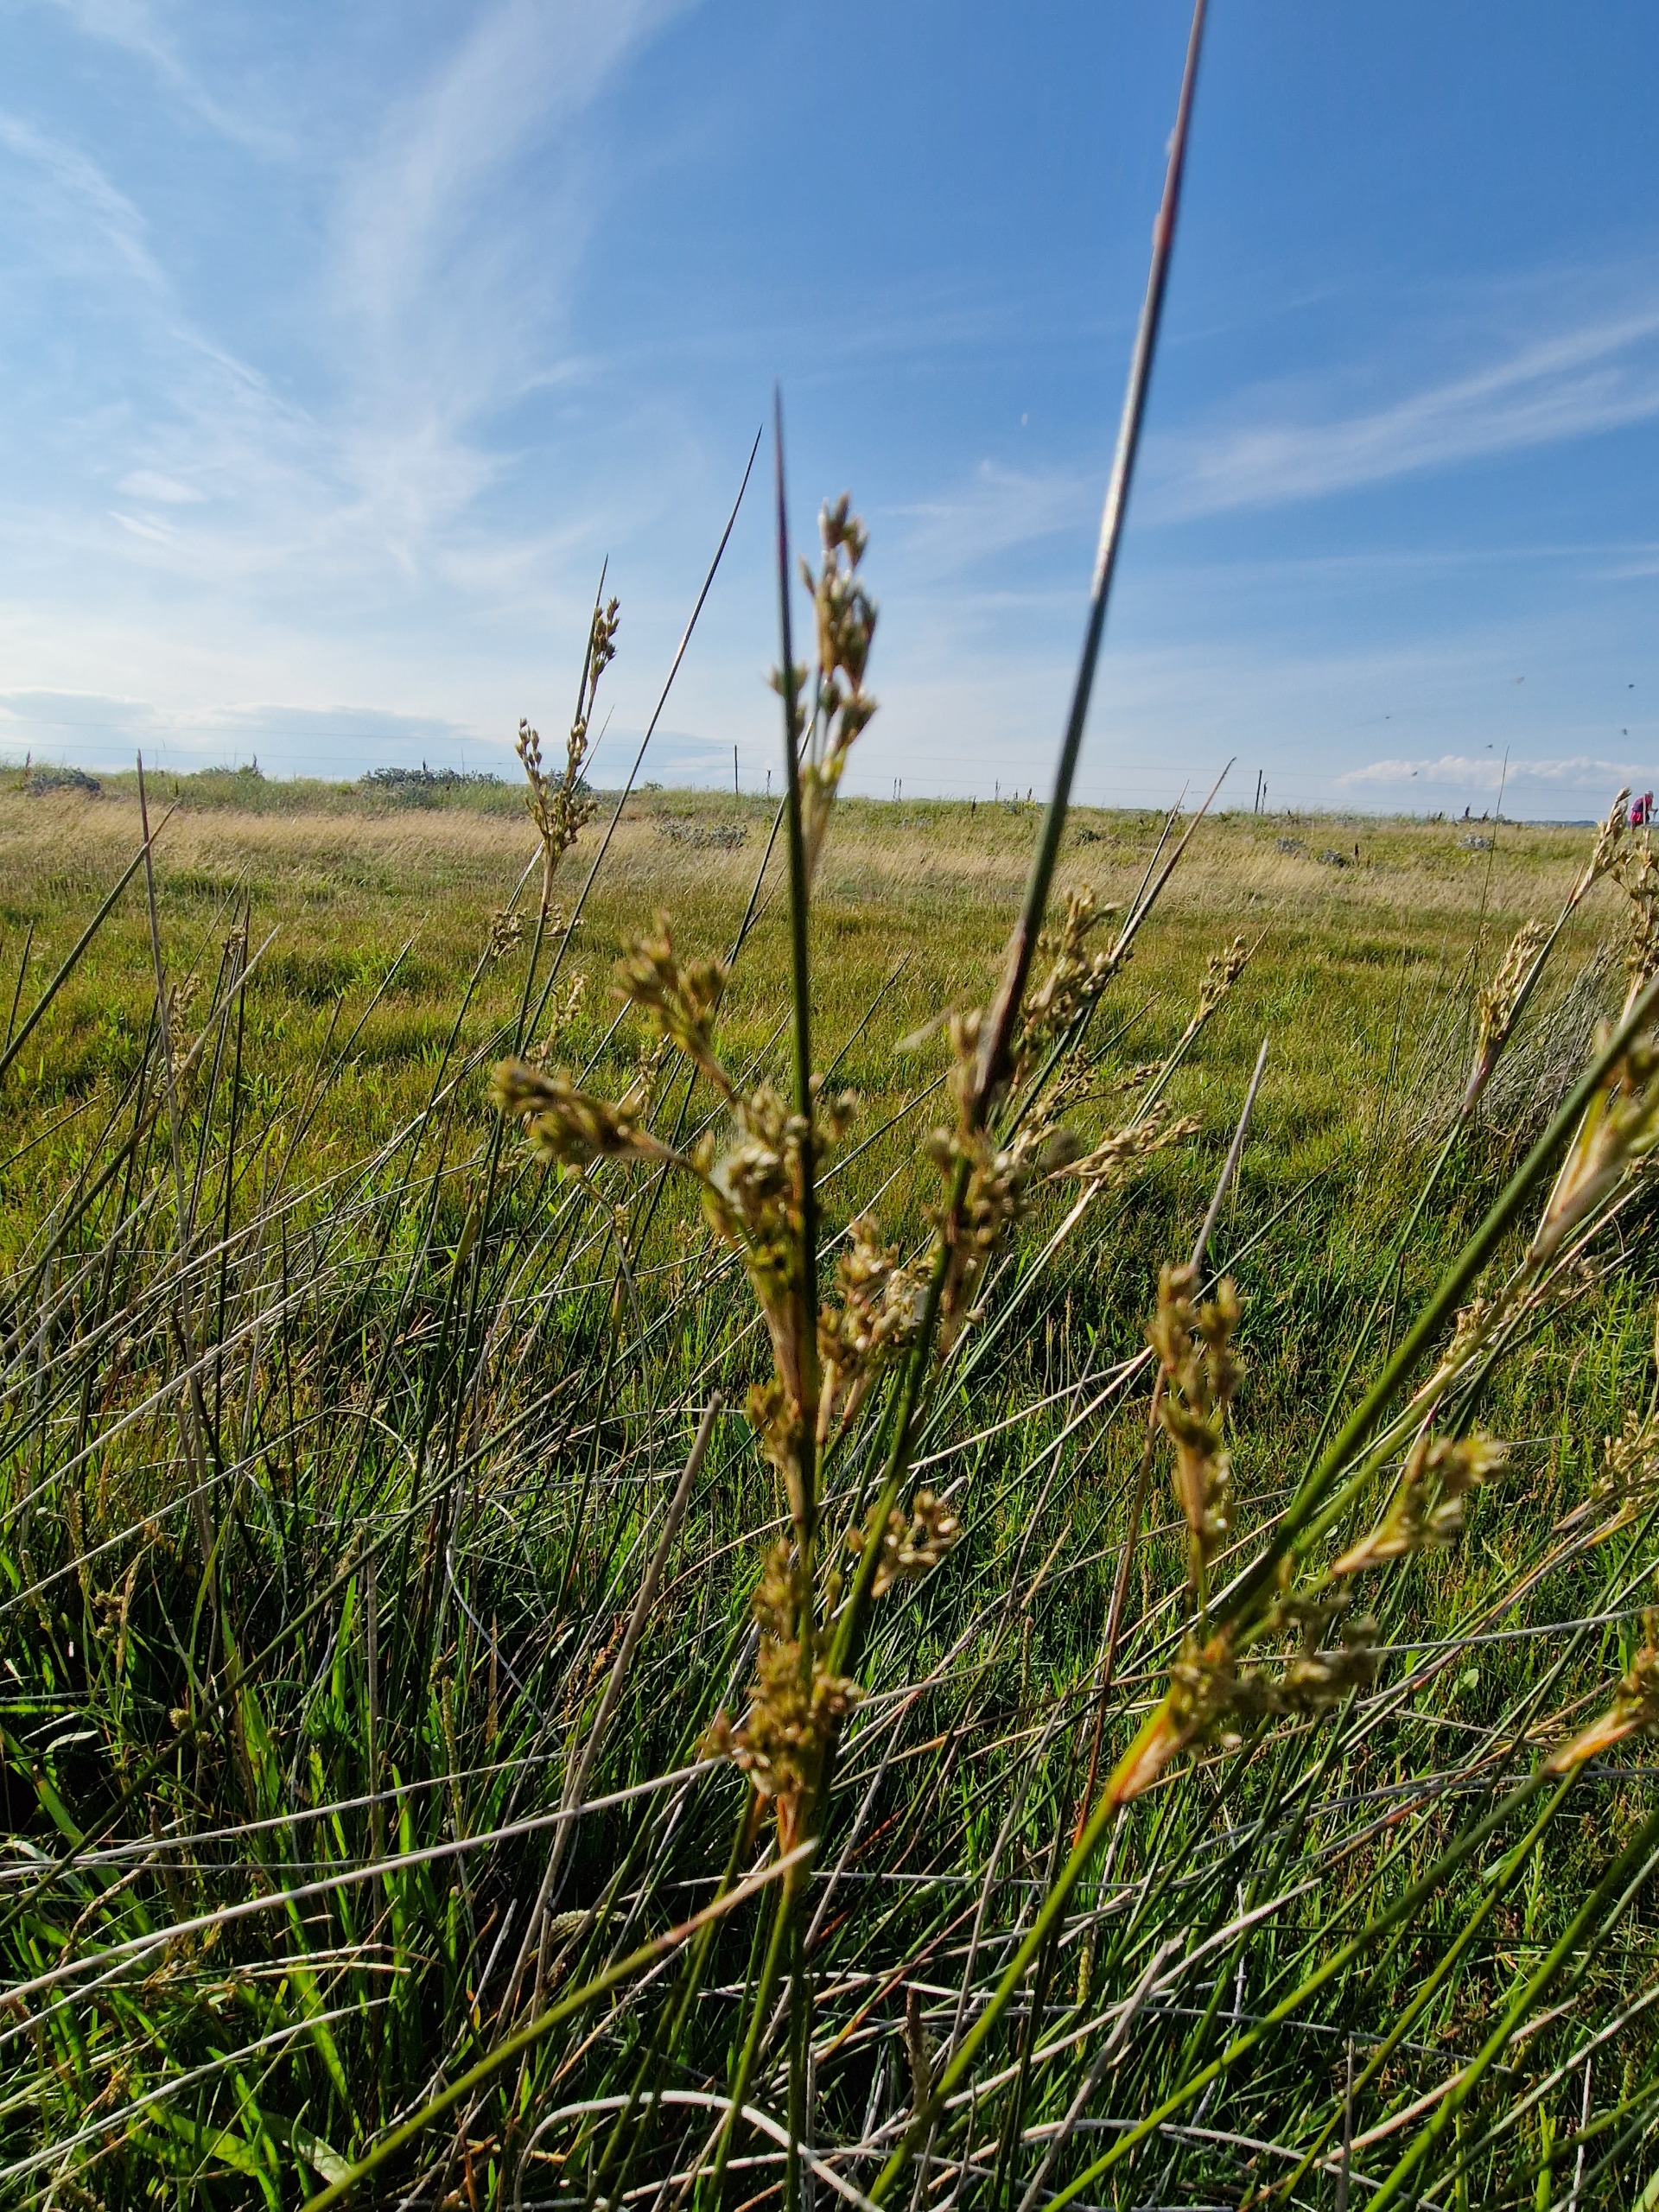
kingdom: Plantae
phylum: Tracheophyta
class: Liliopsida
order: Poales
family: Juncaceae
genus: Juncus
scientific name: Juncus maritimus
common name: Strand-siv
